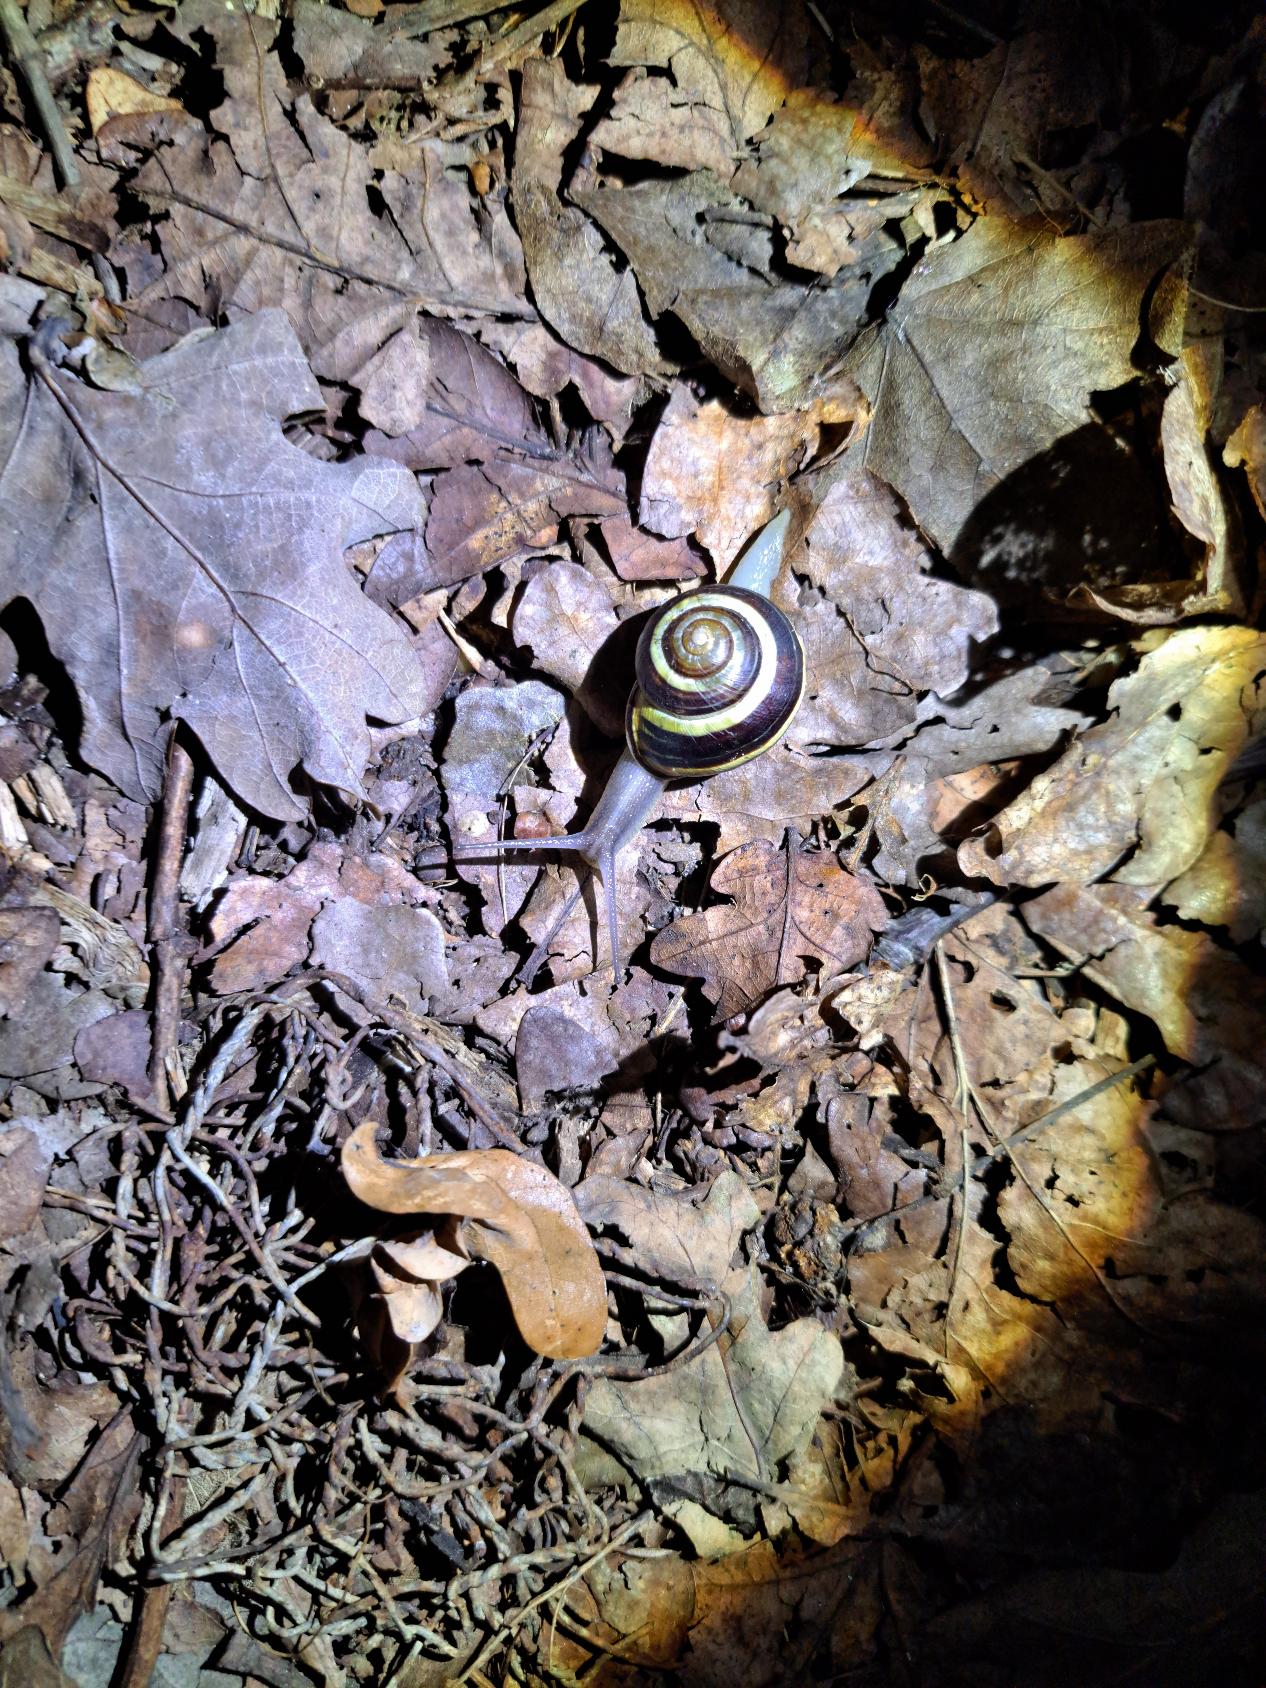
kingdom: Animalia
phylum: Mollusca
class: Gastropoda
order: Stylommatophora
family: Helicidae
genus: Cepaea
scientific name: Cepaea nemoralis
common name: Lundsnegl
